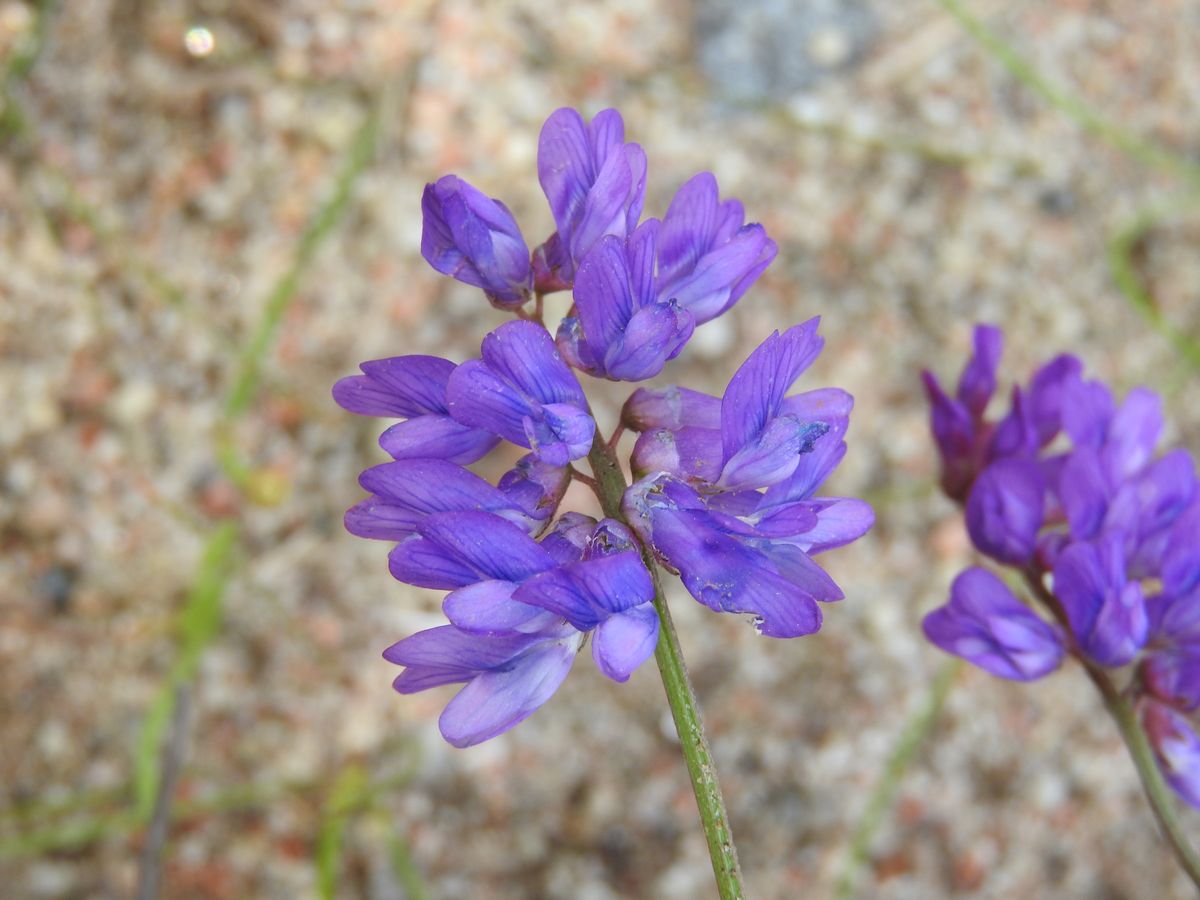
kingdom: Plantae
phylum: Tracheophyta
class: Magnoliopsida
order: Fabales
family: Fabaceae
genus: Vicia
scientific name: Vicia cracca
